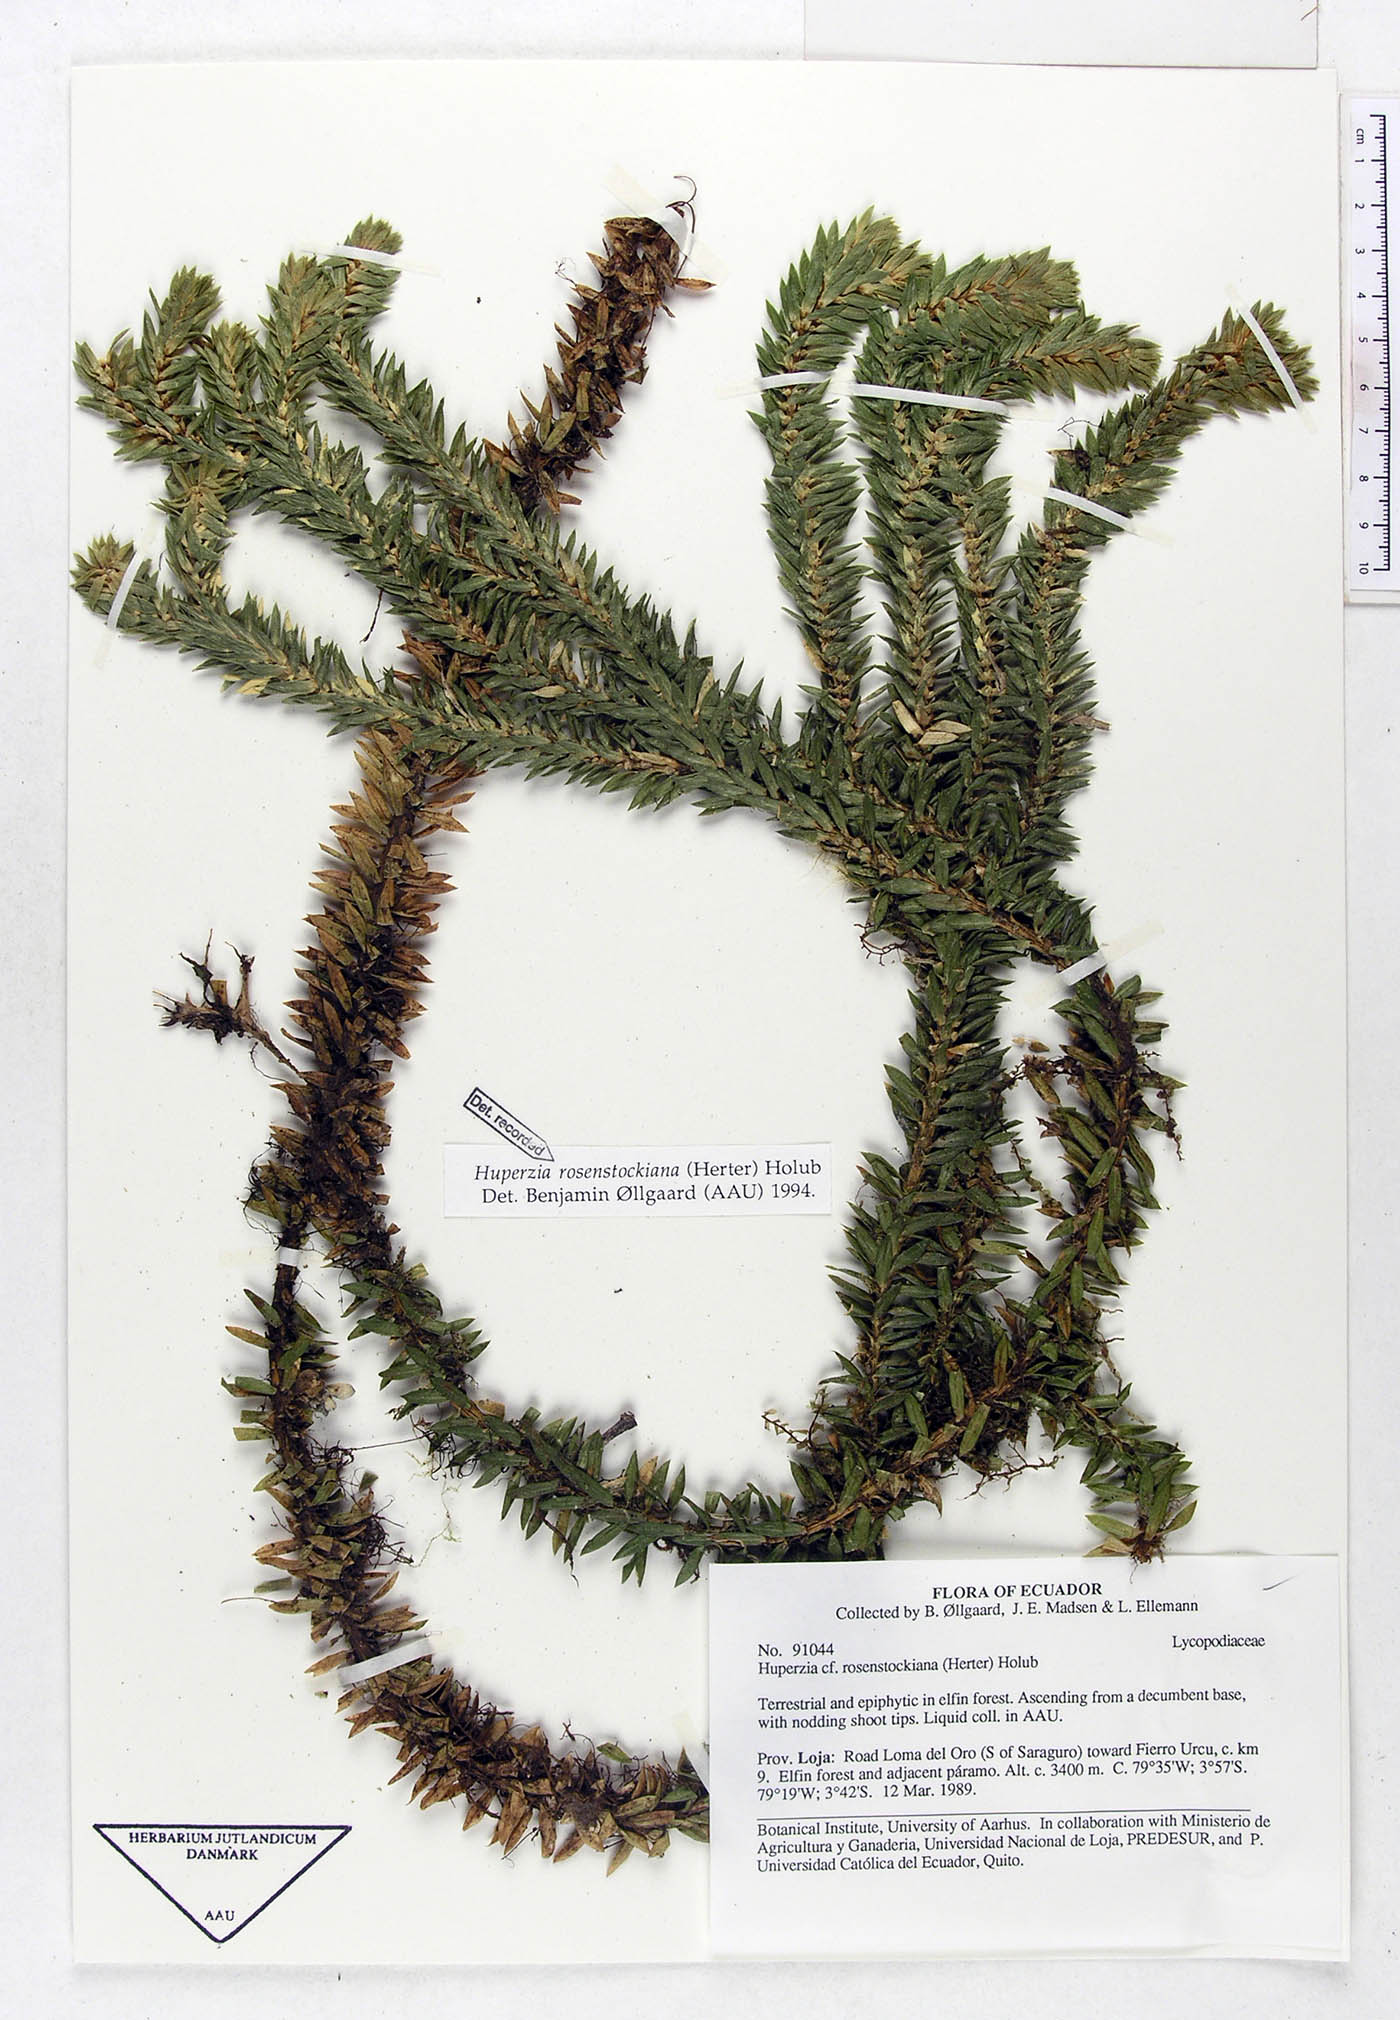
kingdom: Plantae
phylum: Tracheophyta
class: Lycopodiopsida
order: Lycopodiales
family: Lycopodiaceae
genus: Phlegmariurus
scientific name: Phlegmariurus rosenstockianus
